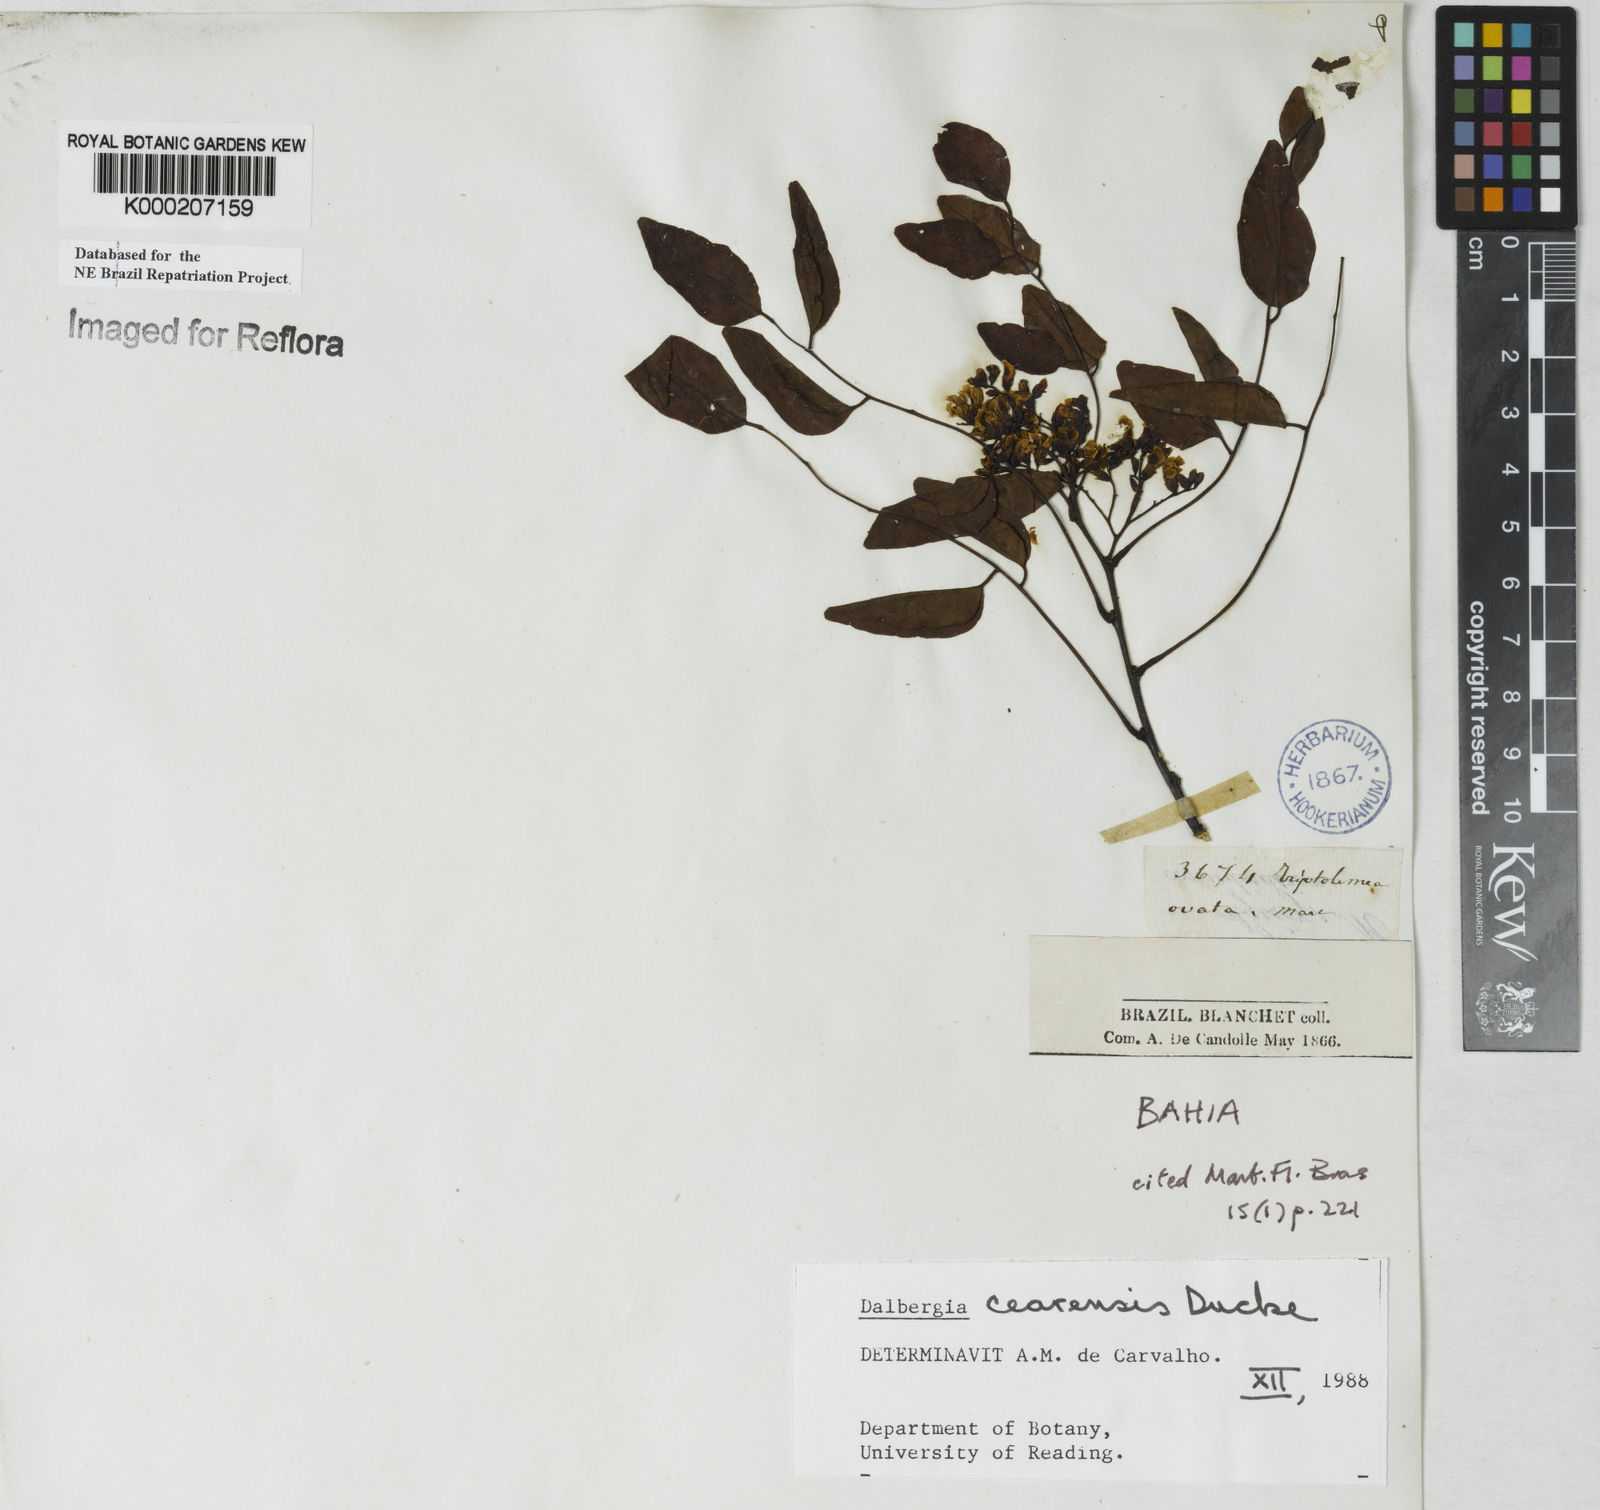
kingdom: Plantae
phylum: Tracheophyta
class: Magnoliopsida
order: Fabales
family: Fabaceae
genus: Dalbergia
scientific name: Dalbergia cearensis
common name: Brazilian-king-wood
